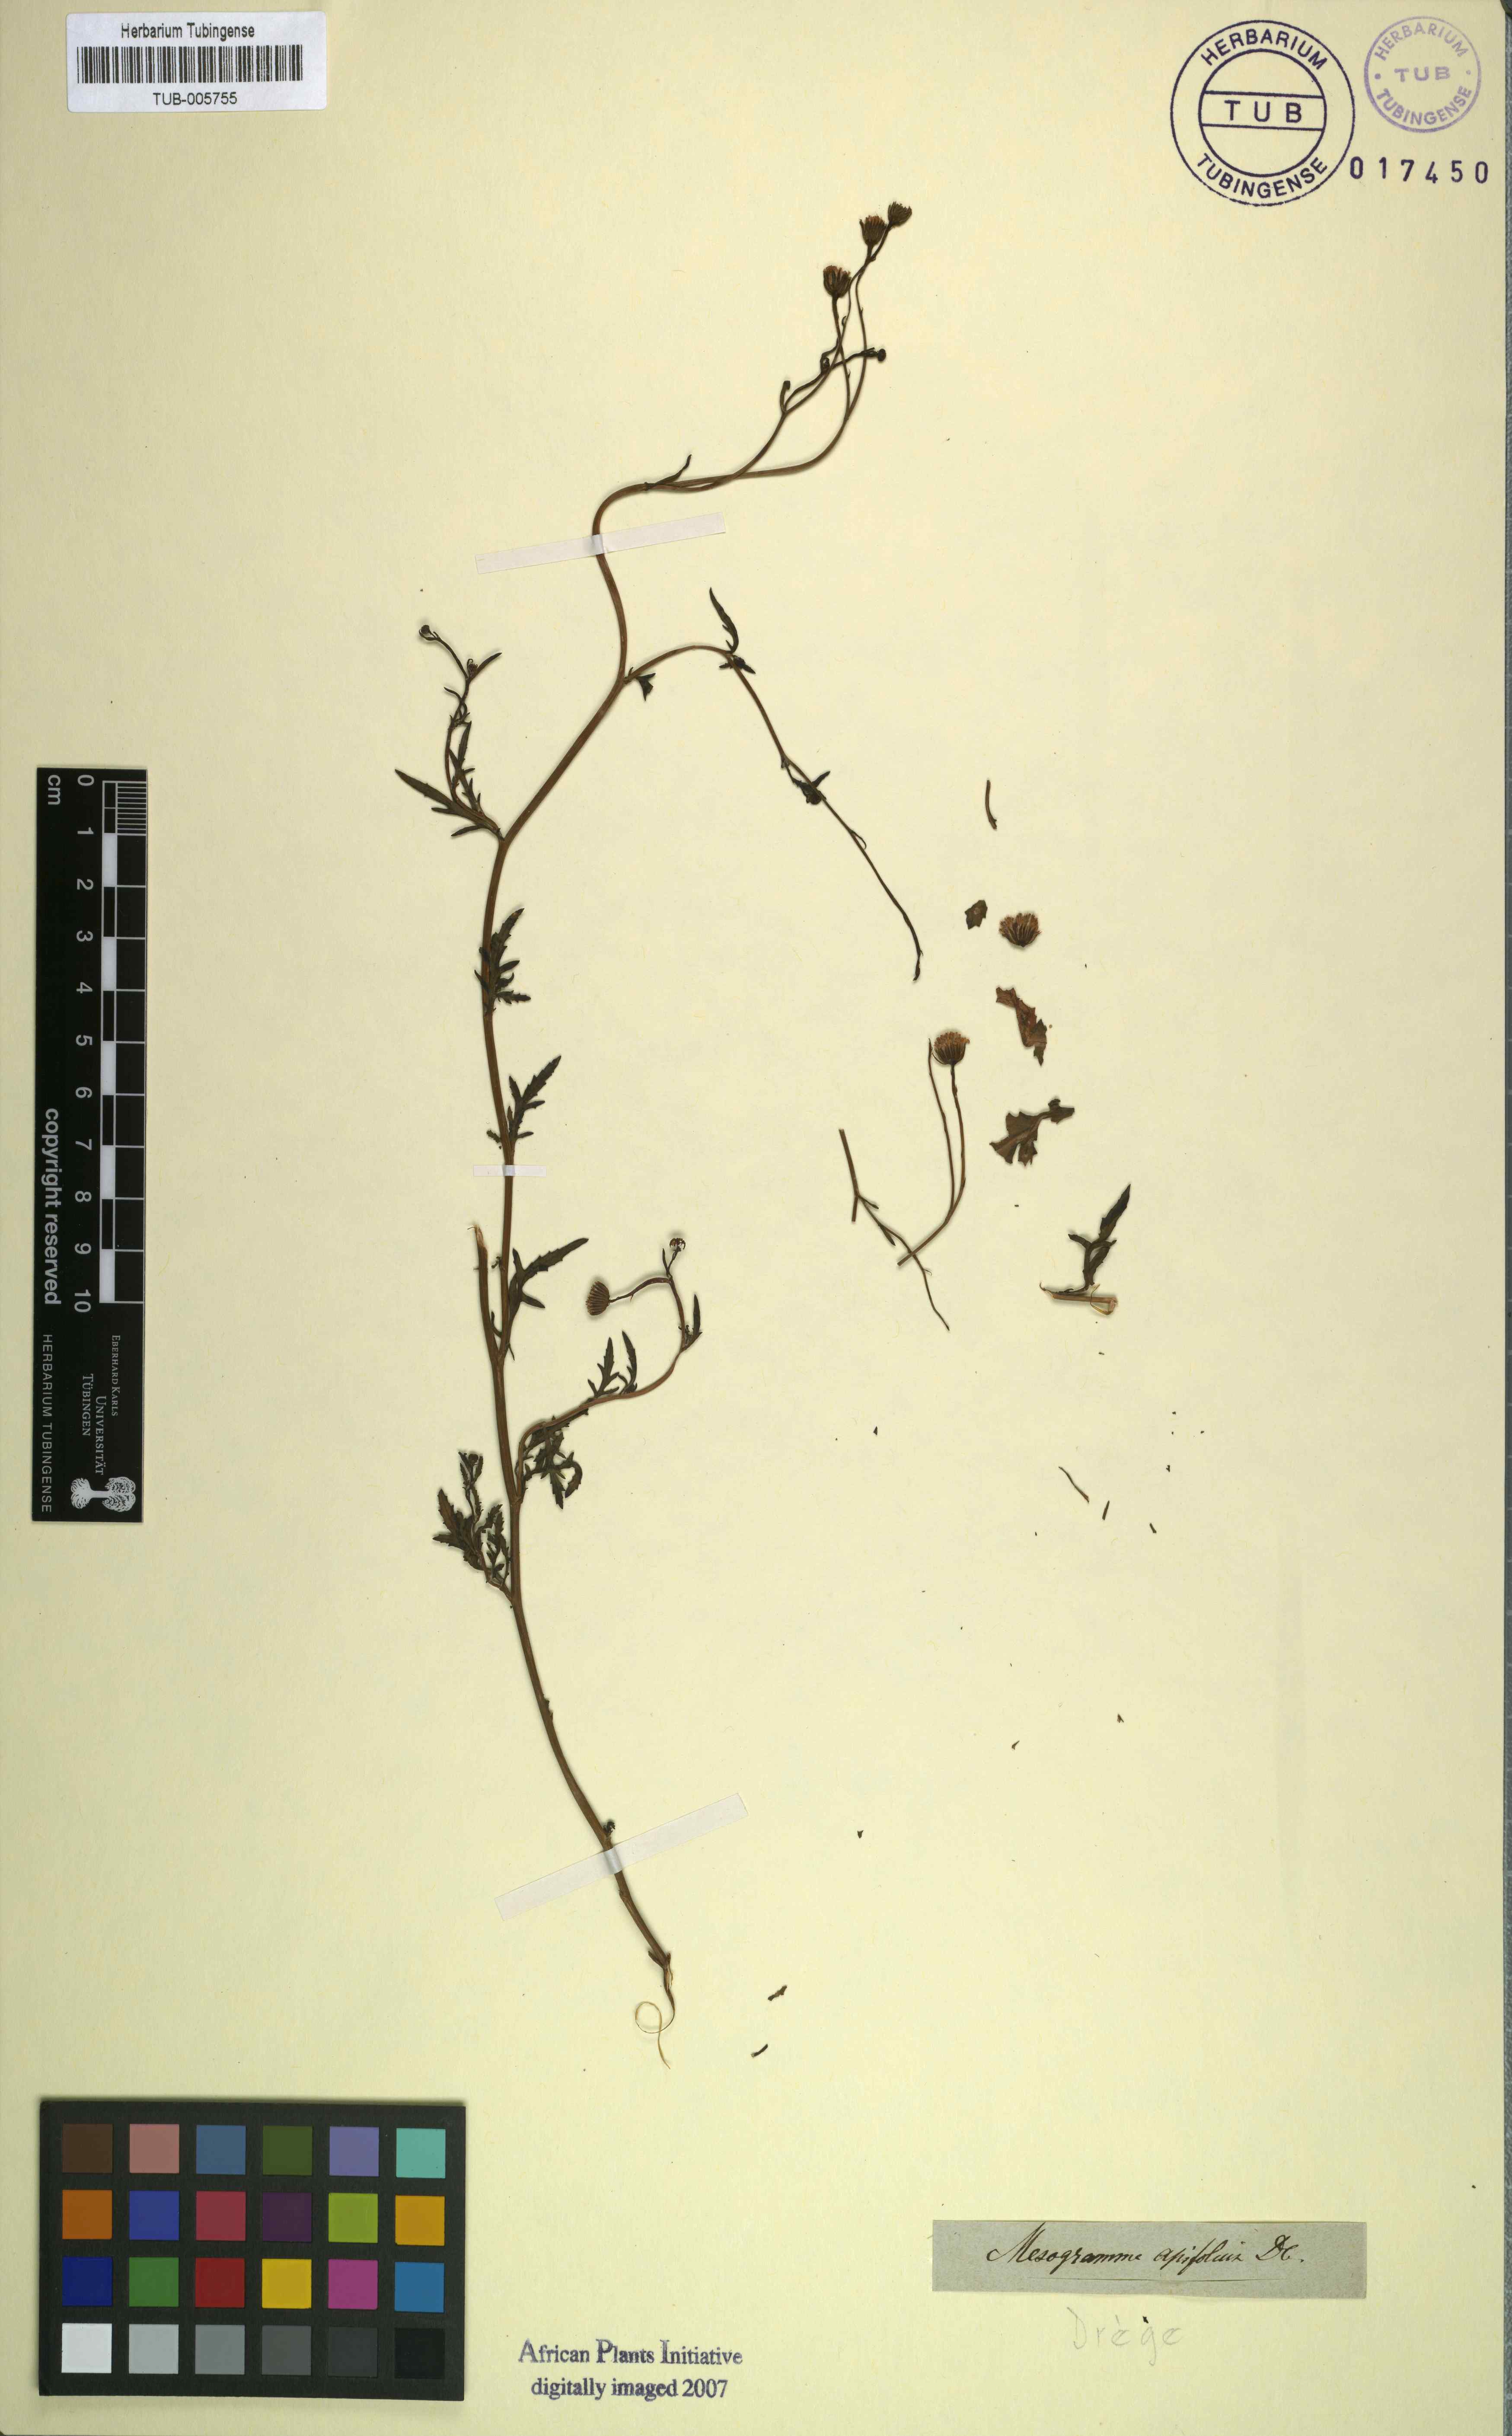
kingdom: Plantae
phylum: Tracheophyta
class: Magnoliopsida
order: Asterales
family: Asteraceae
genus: Mesogramma
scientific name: Mesogramma apiifolium
